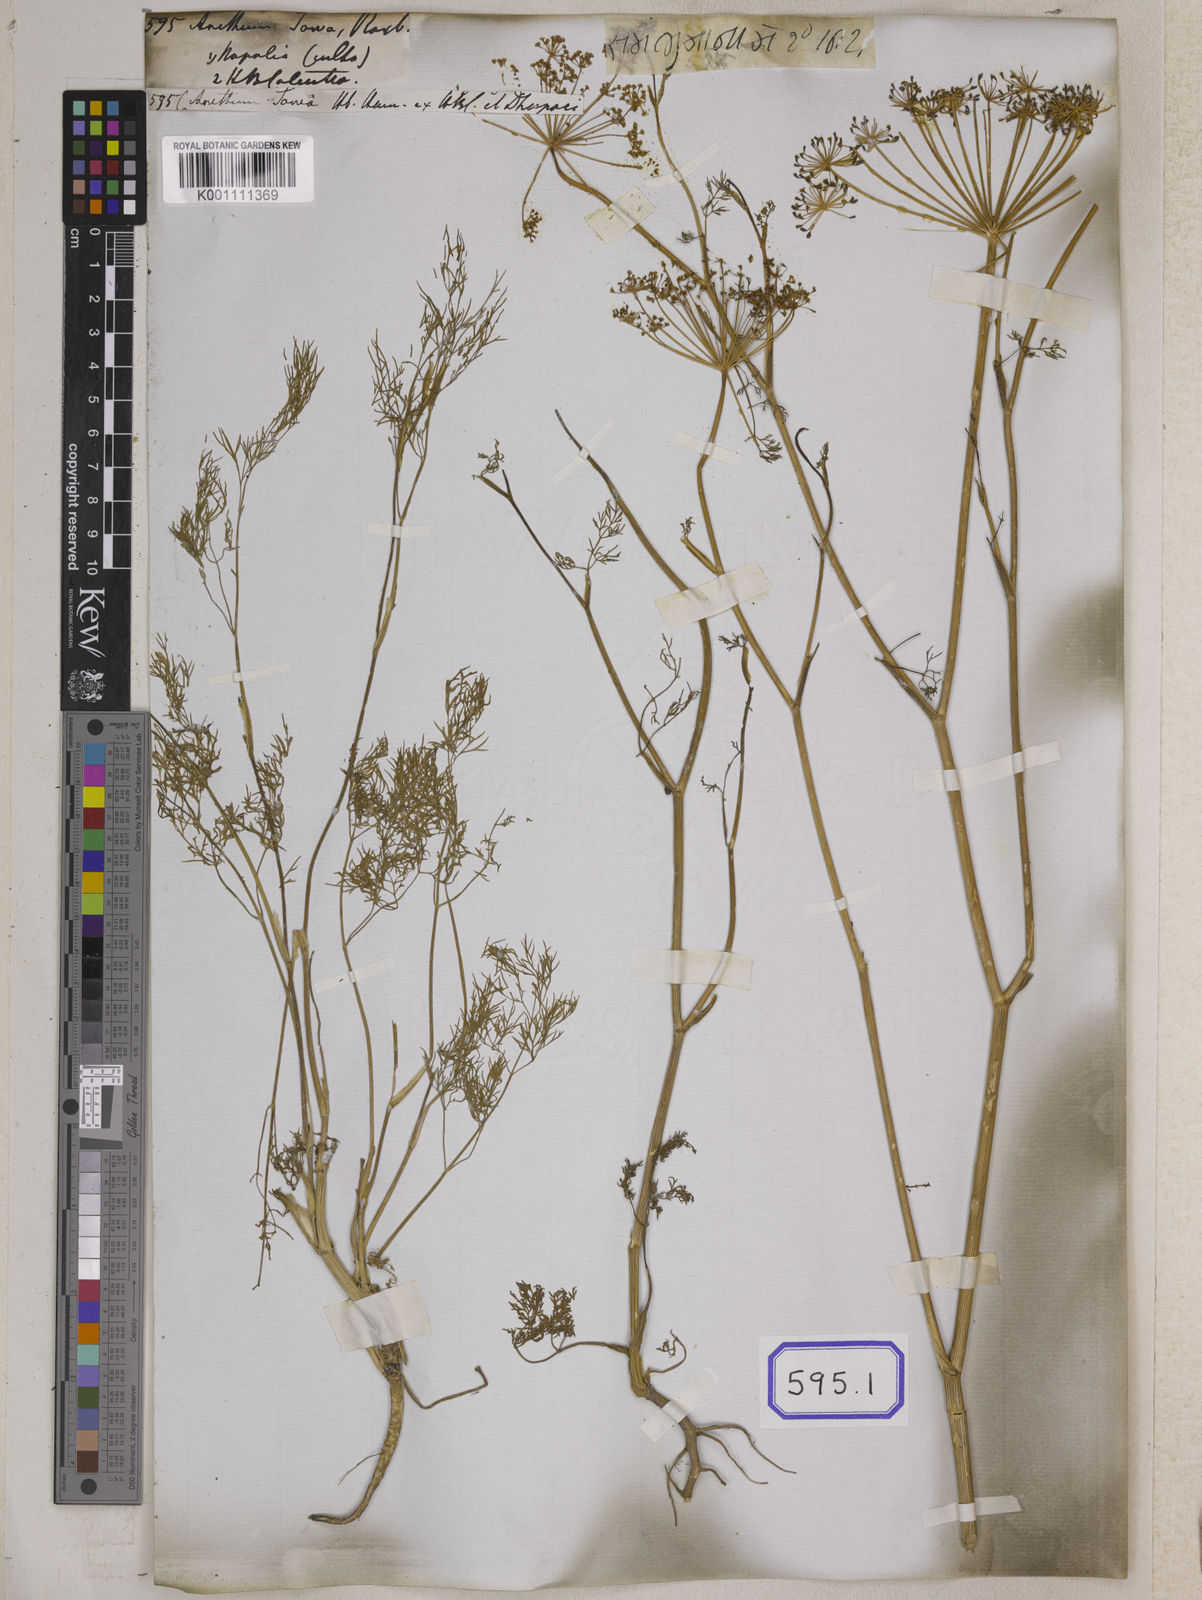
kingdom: Plantae
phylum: Tracheophyta
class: Magnoliopsida
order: Apiales
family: Apiaceae
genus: Anethum
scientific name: Anethum graveolens
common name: Dill
